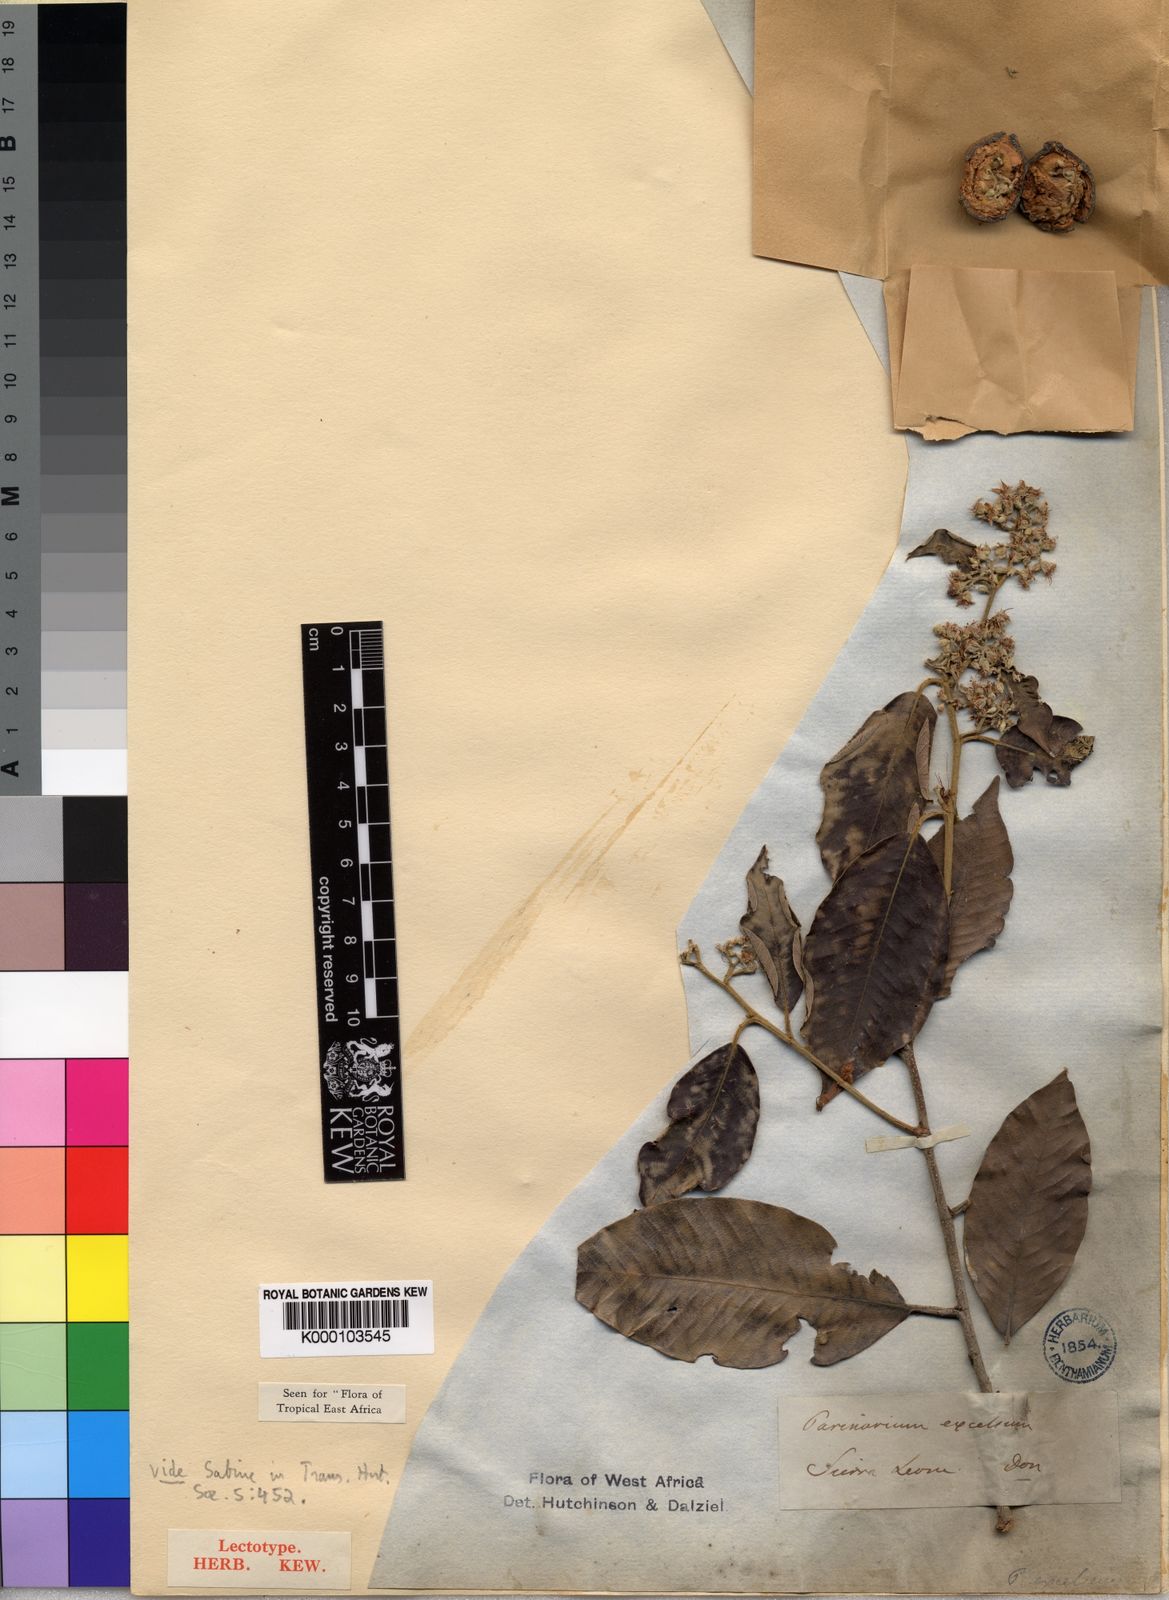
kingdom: Plantae
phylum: Tracheophyta
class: Magnoliopsida
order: Malpighiales
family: Chrysobalanaceae
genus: Parinari
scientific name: Parinari excelsa
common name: Guinea-plum
